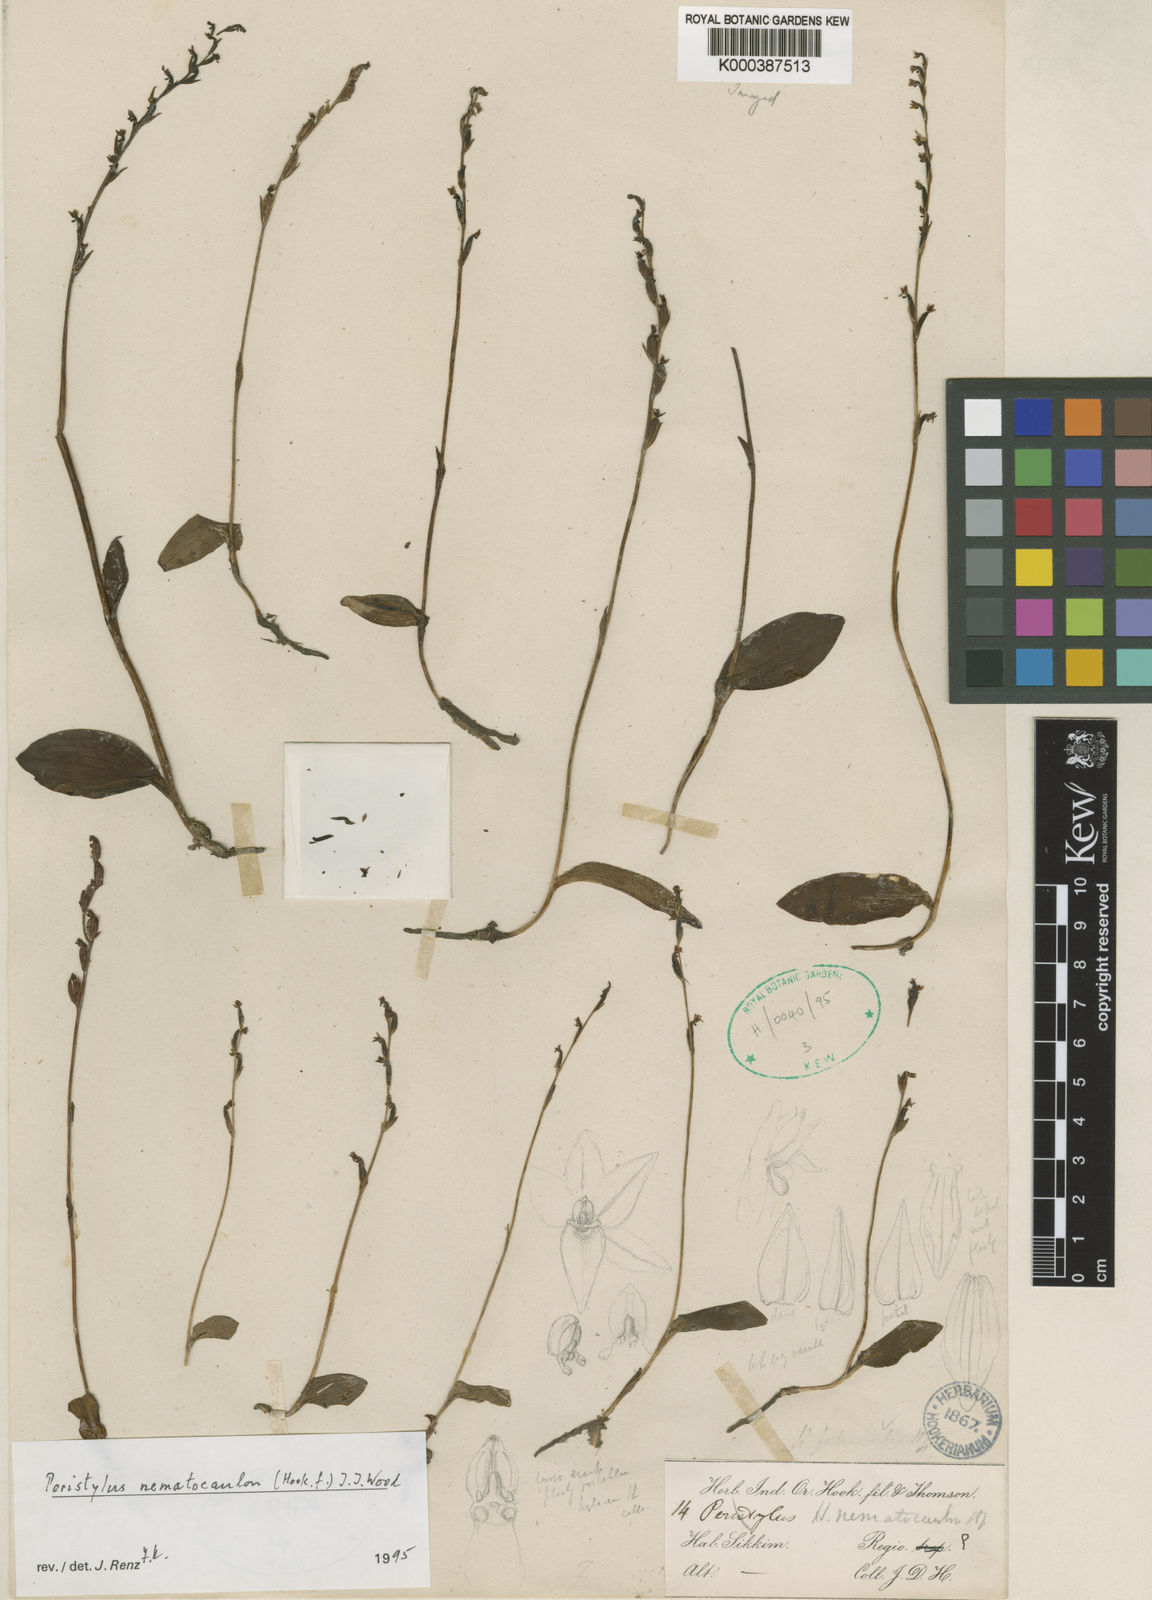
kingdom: Plantae
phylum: Tracheophyta
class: Liliopsida
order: Asparagales
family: Orchidaceae
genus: Peristylus
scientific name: Peristylus
